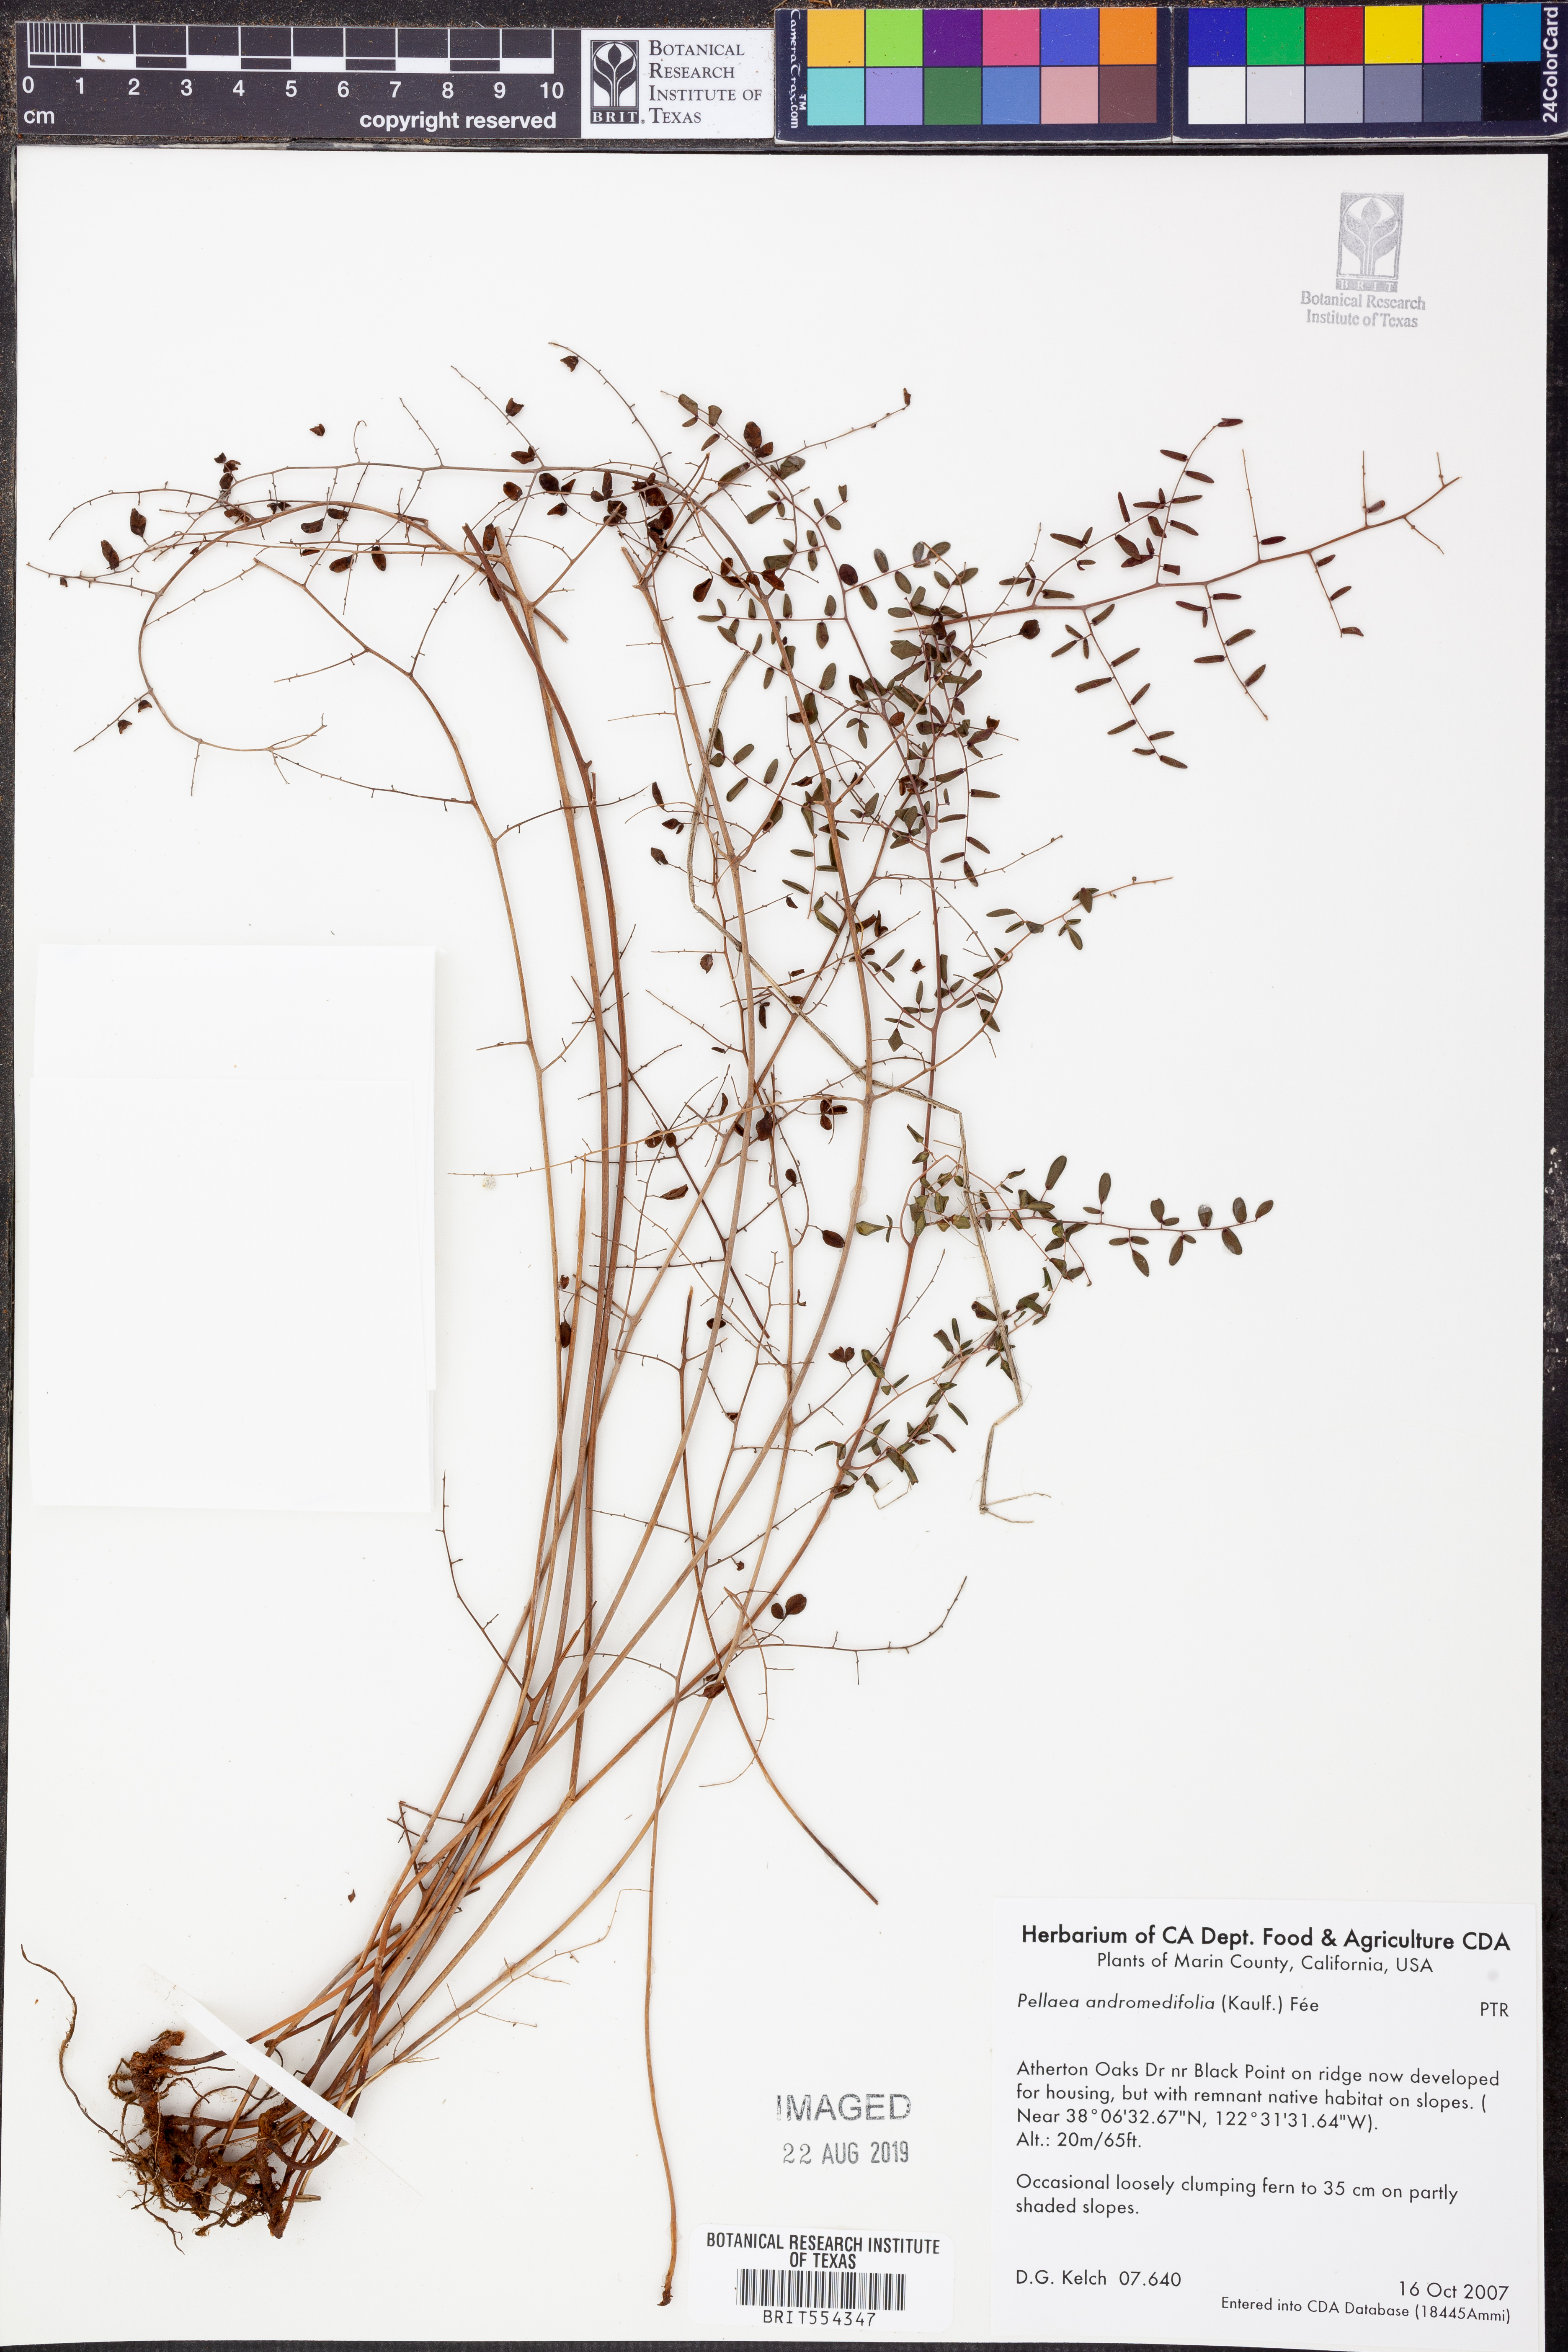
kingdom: Plantae
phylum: Tracheophyta
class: Polypodiopsida
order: Polypodiales
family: Pteridaceae
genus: Pellaea
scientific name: Pellaea andromedifolia
